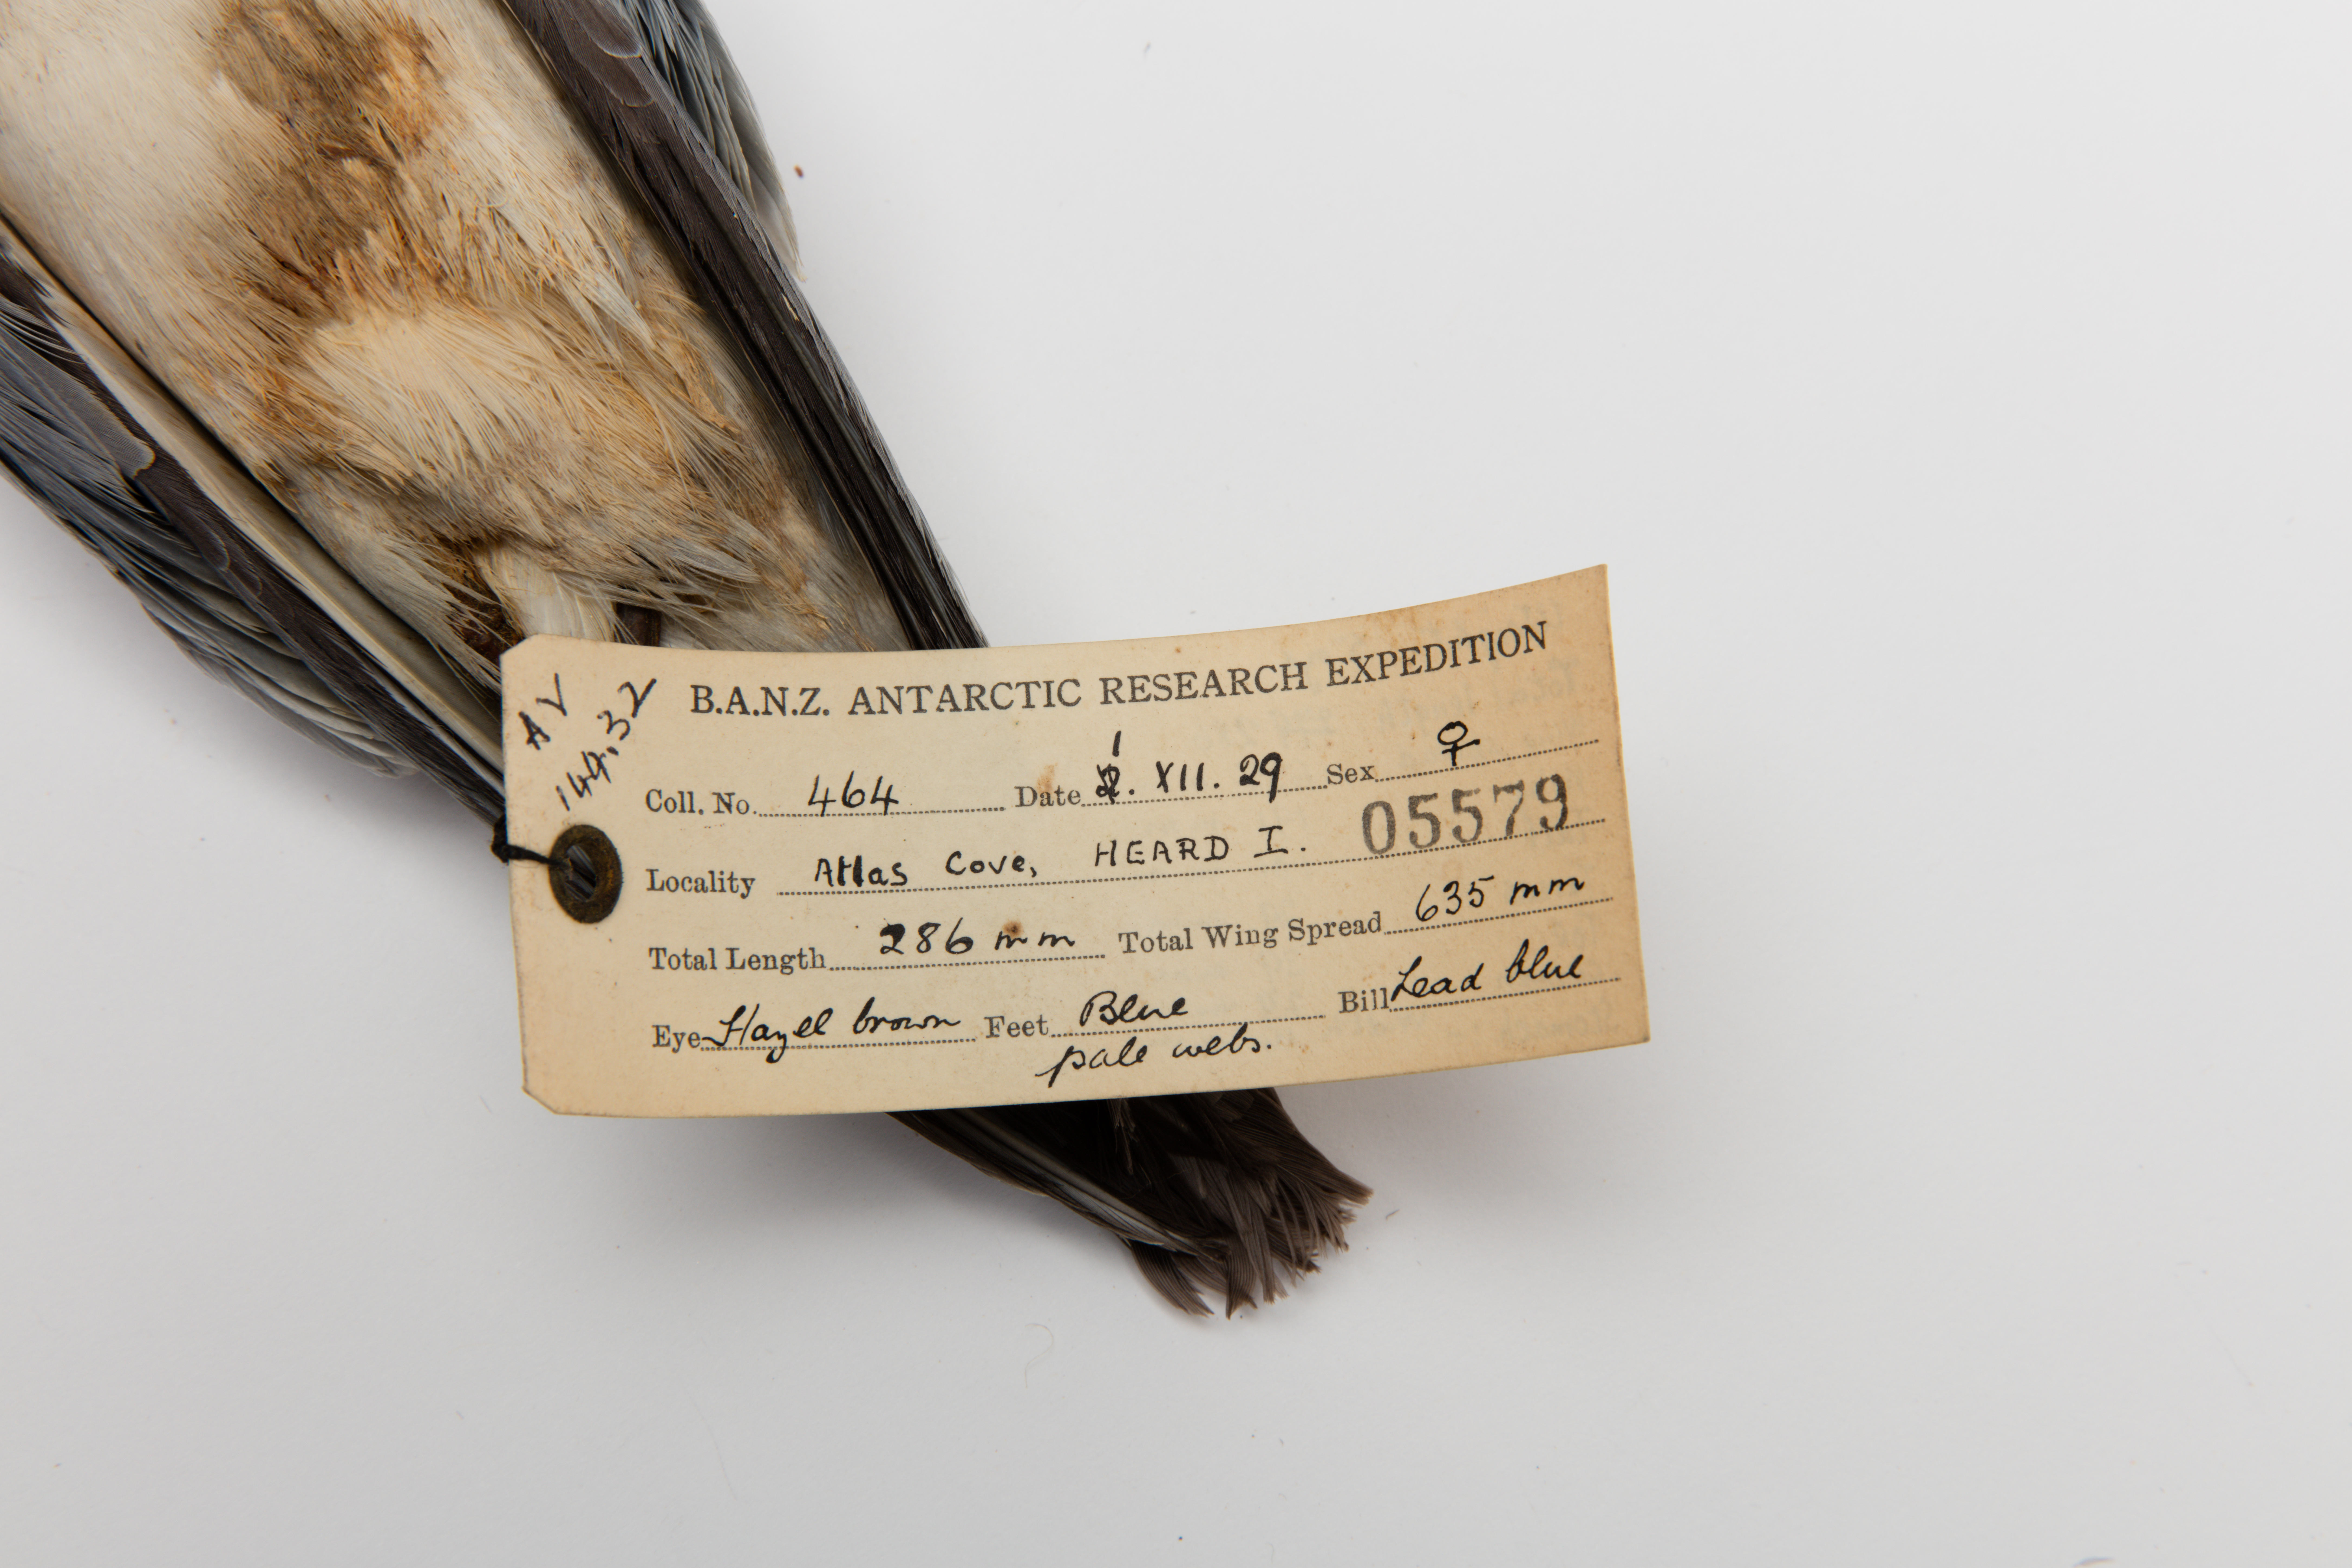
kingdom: Animalia
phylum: Chordata
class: Aves
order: Procellariiformes
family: Procellariidae
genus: Pachyptila
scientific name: Pachyptila desolata
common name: Antarctic prion
